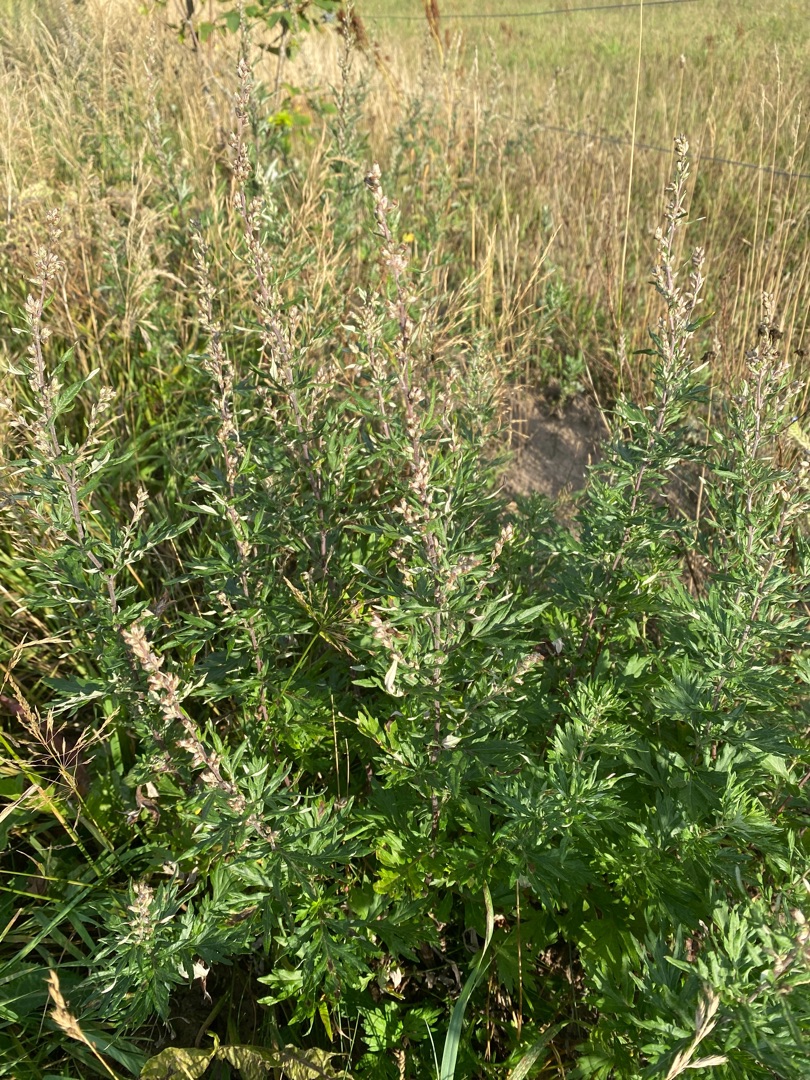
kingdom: Plantae
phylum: Tracheophyta
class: Magnoliopsida
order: Asterales
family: Asteraceae
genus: Artemisia
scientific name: Artemisia vulgaris
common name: Grå-bynke
